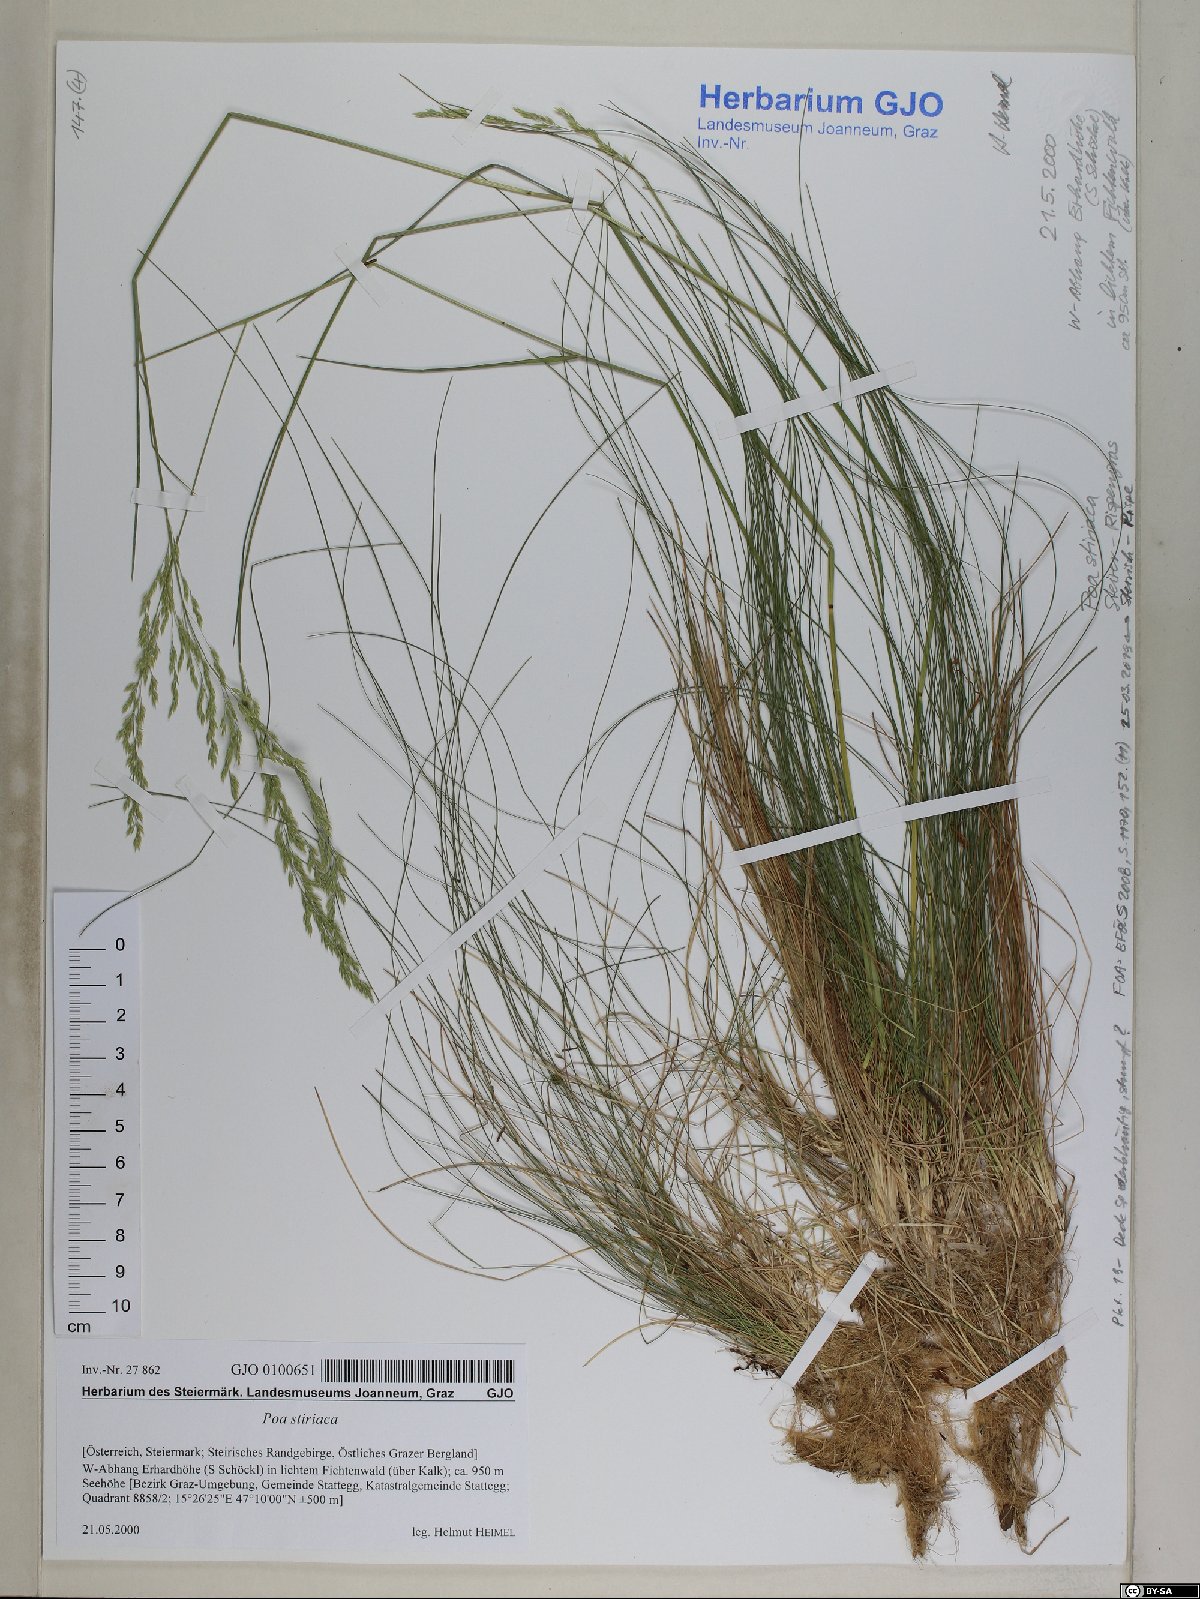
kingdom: Plantae
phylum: Tracheophyta
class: Liliopsida
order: Poales
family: Poaceae
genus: Poa
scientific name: Poa stiriaca
